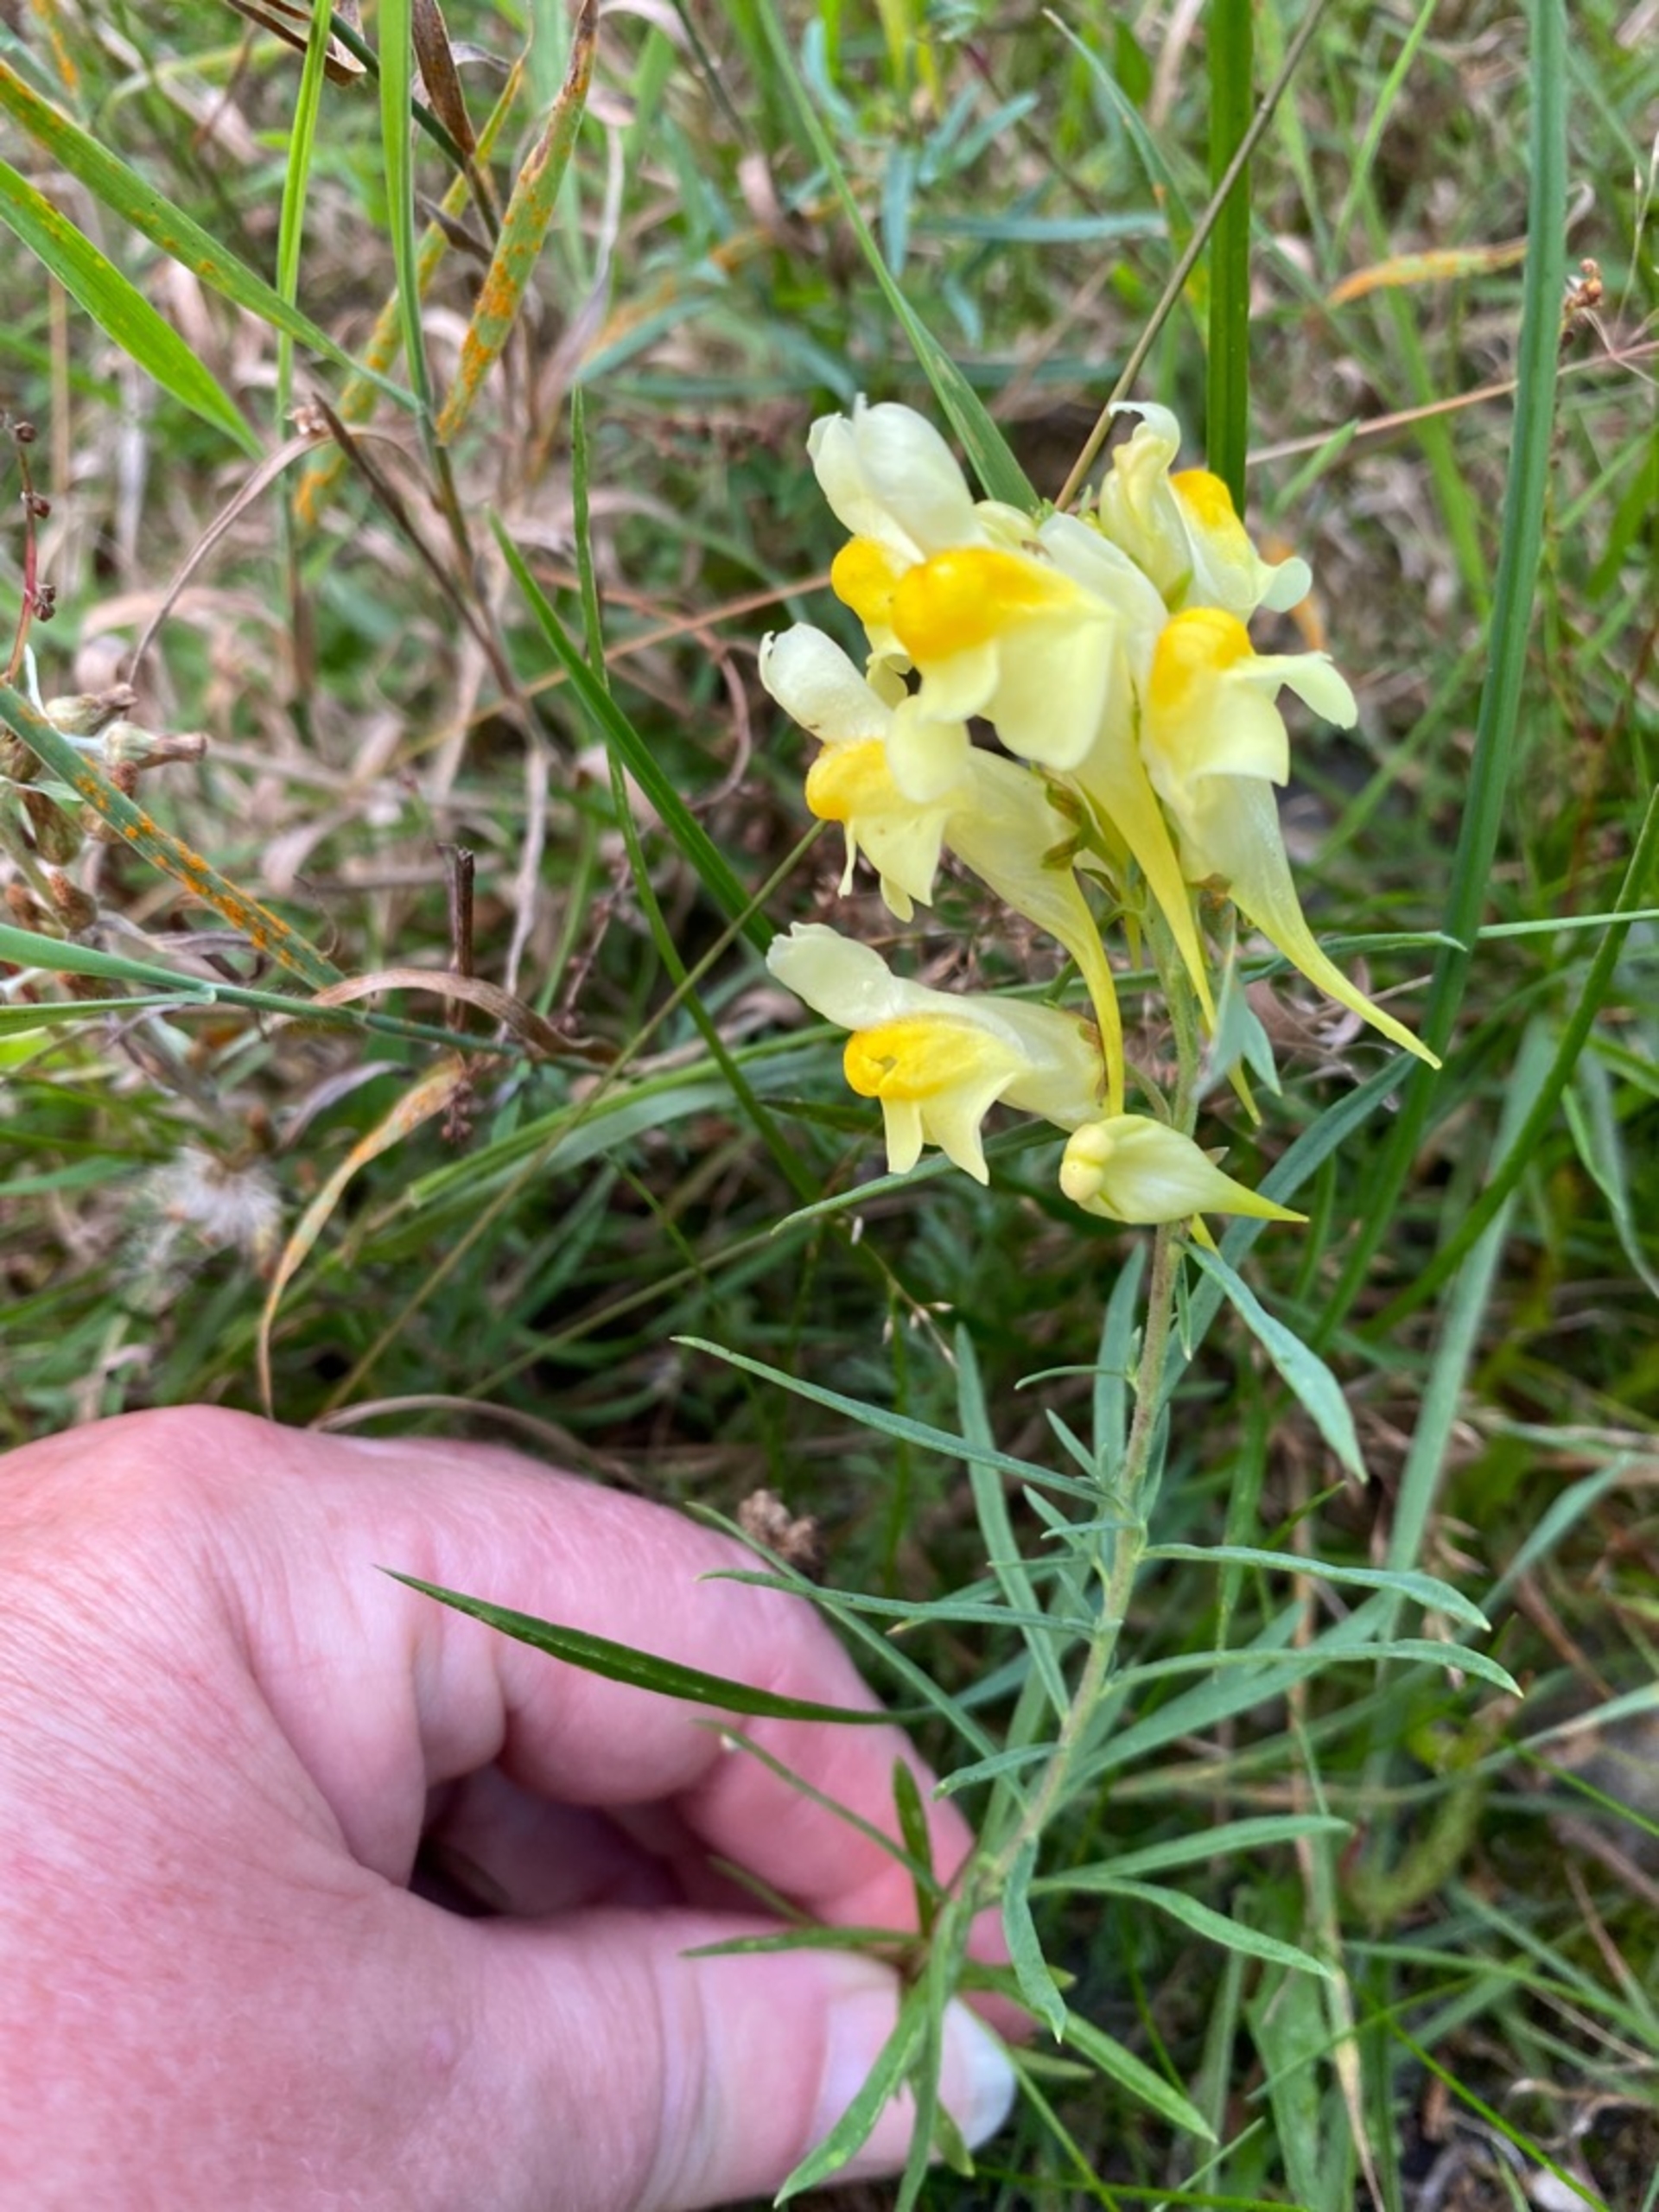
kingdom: Plantae
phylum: Tracheophyta
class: Magnoliopsida
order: Lamiales
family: Plantaginaceae
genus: Linaria
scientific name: Linaria vulgaris
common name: Almindelig torskemund
